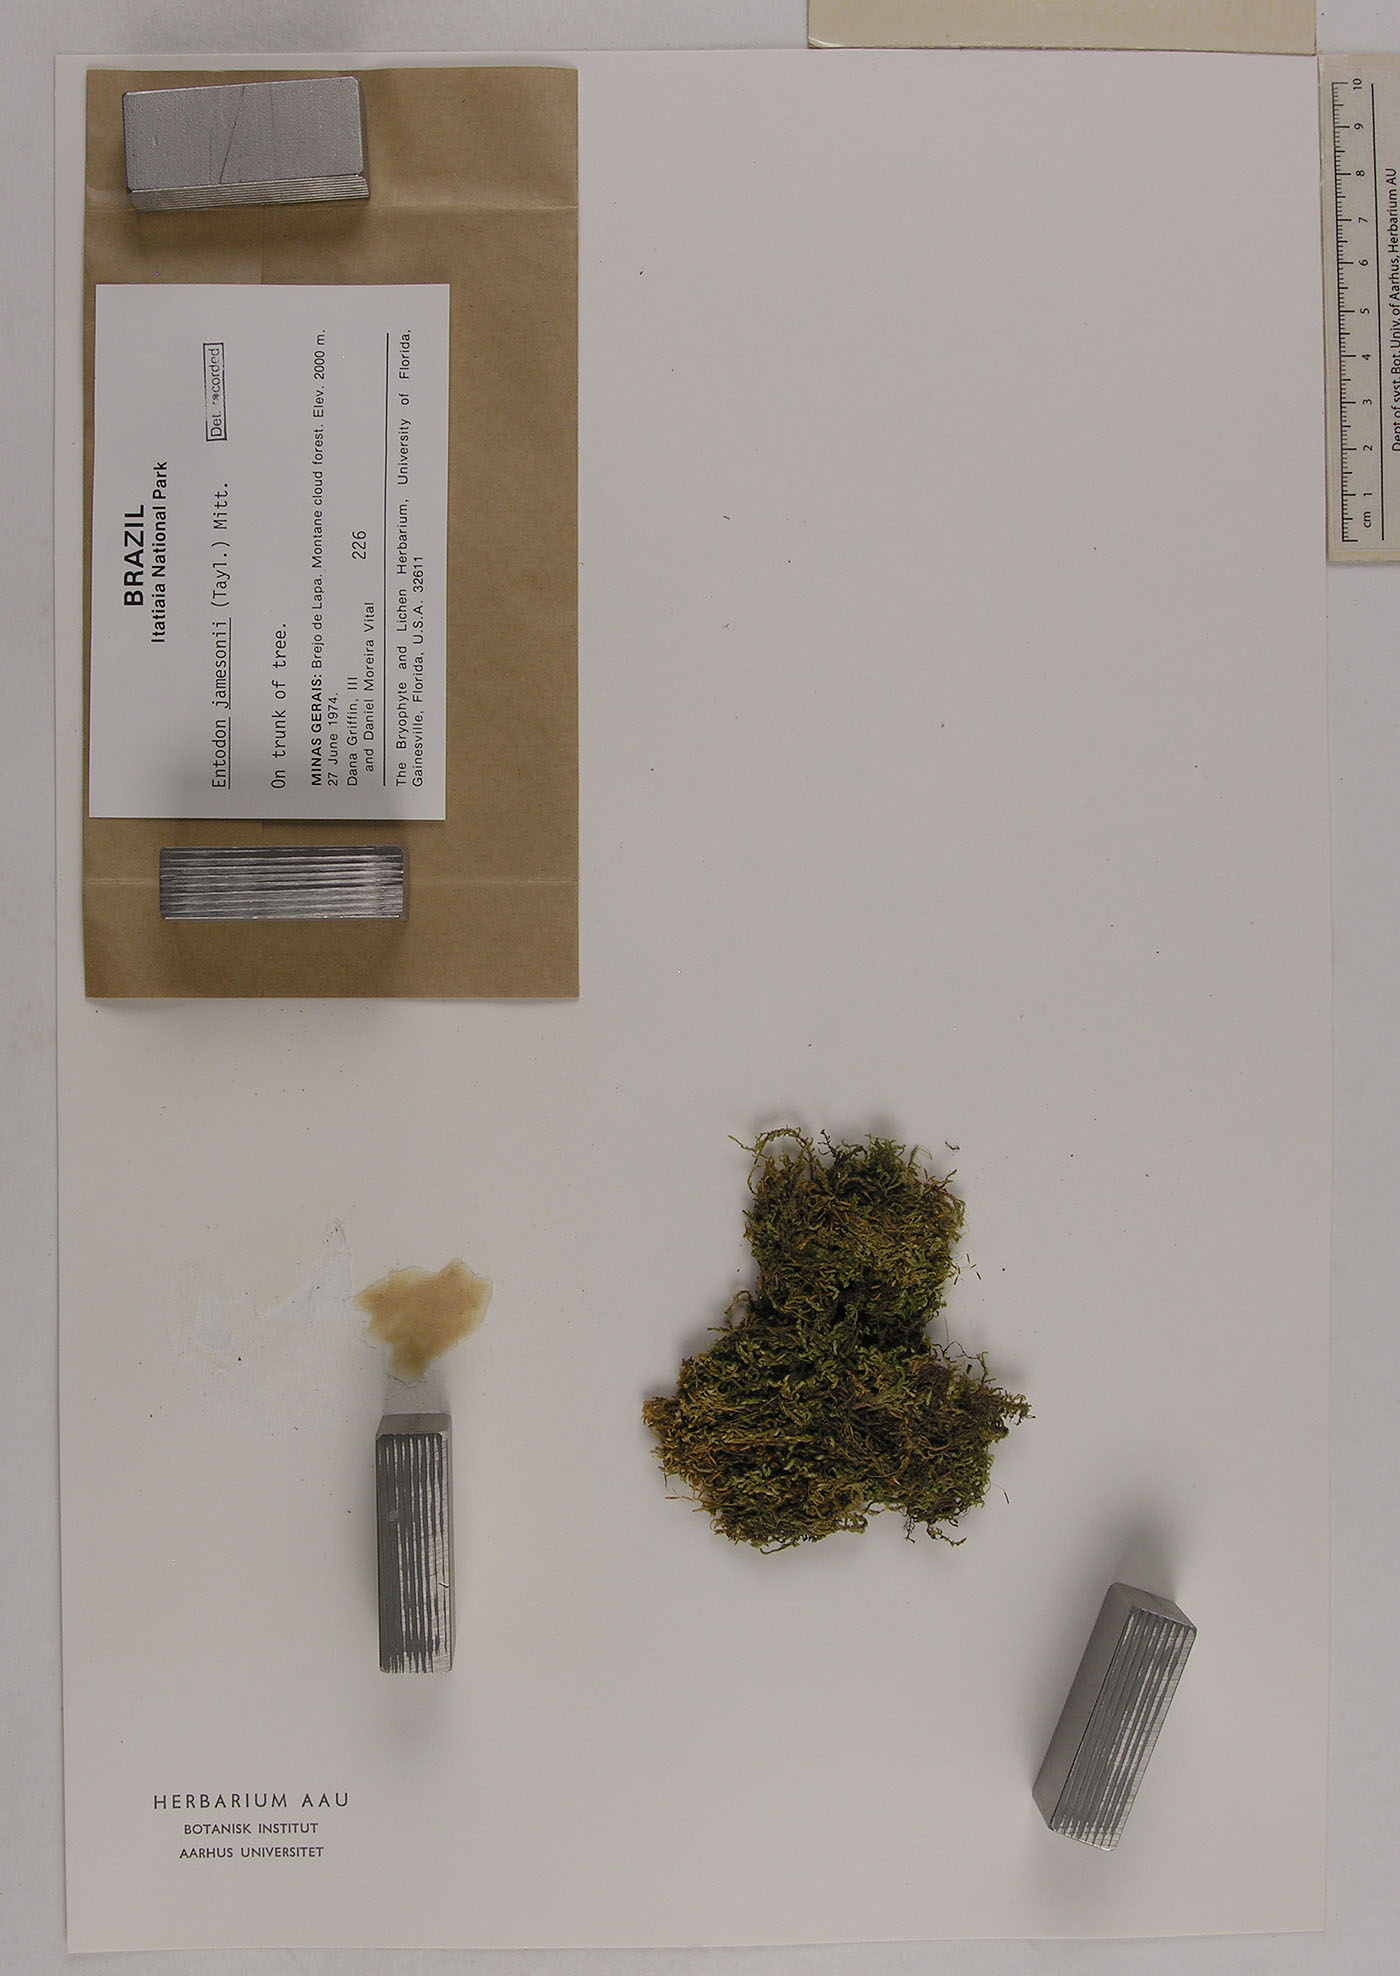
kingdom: Plantae
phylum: Bryophyta
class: Bryopsida
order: Hypnales
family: Entodontaceae
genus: Entodon
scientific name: Entodon jamesonii
